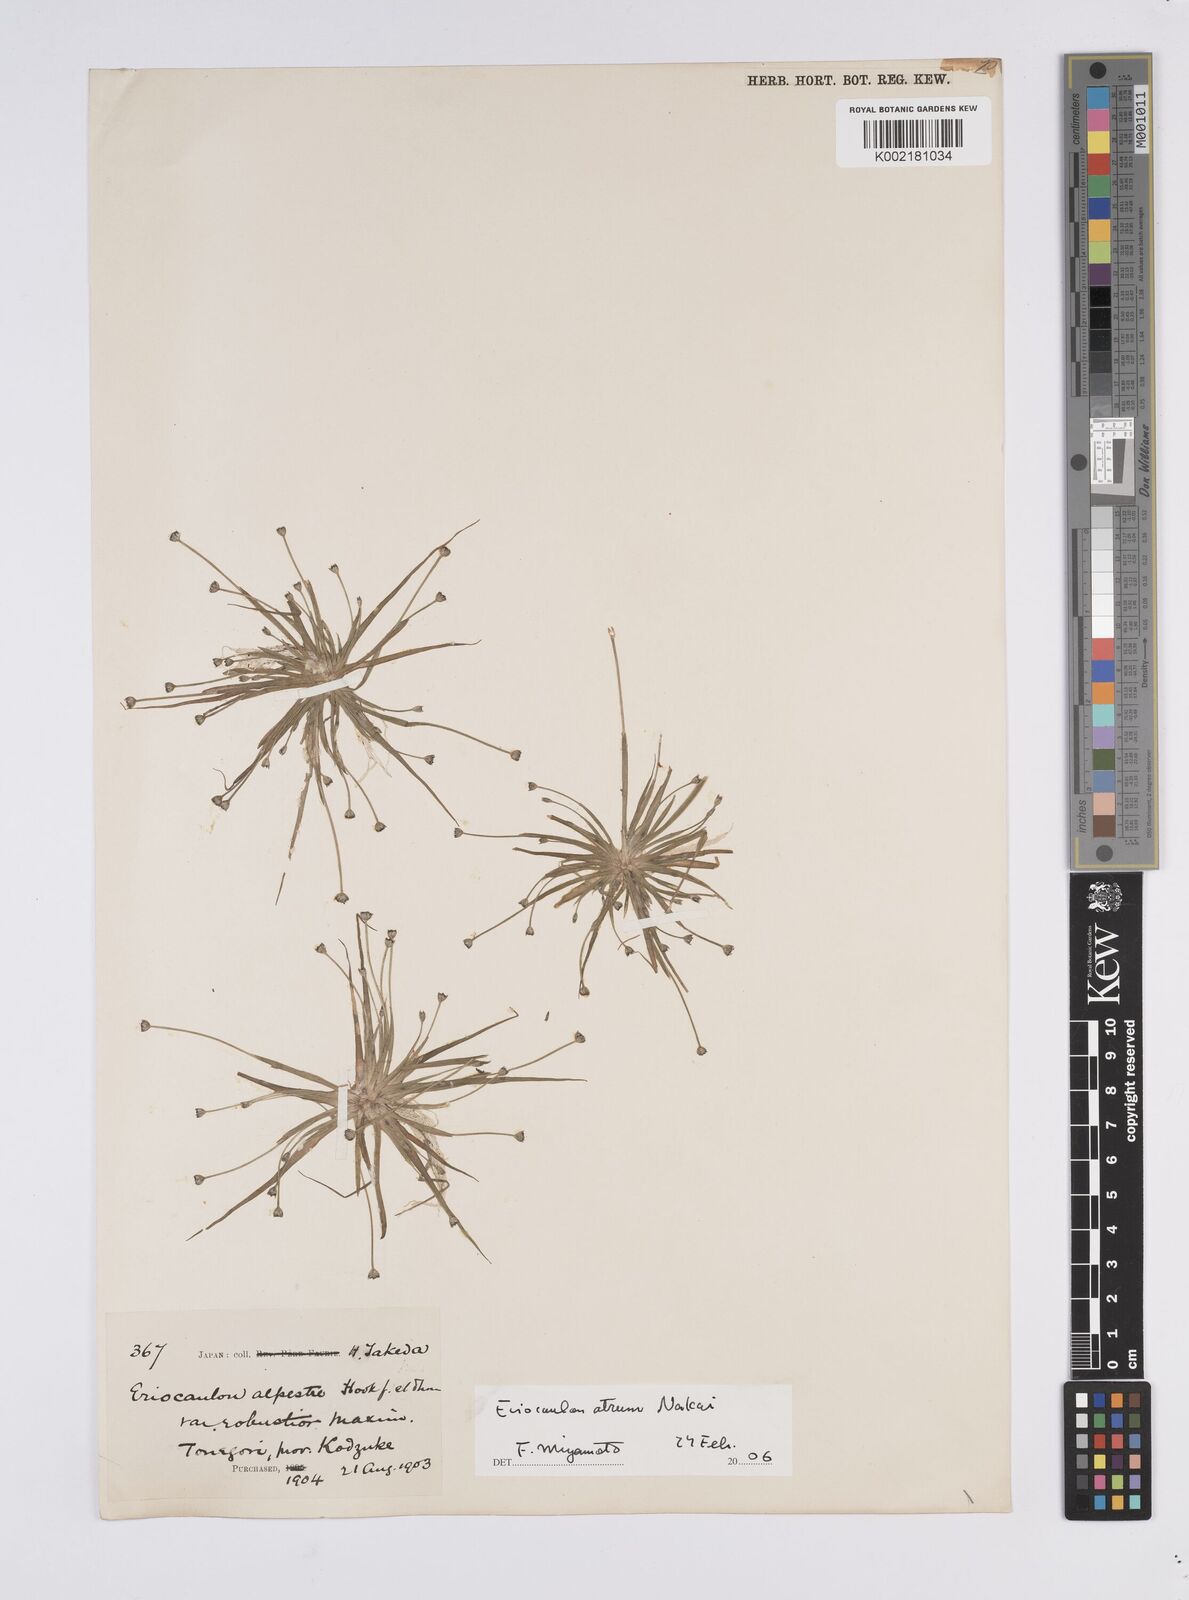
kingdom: Plantae
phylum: Tracheophyta
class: Liliopsida
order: Poales
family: Eriocaulaceae
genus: Eriocaulon
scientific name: Eriocaulon alpestre
